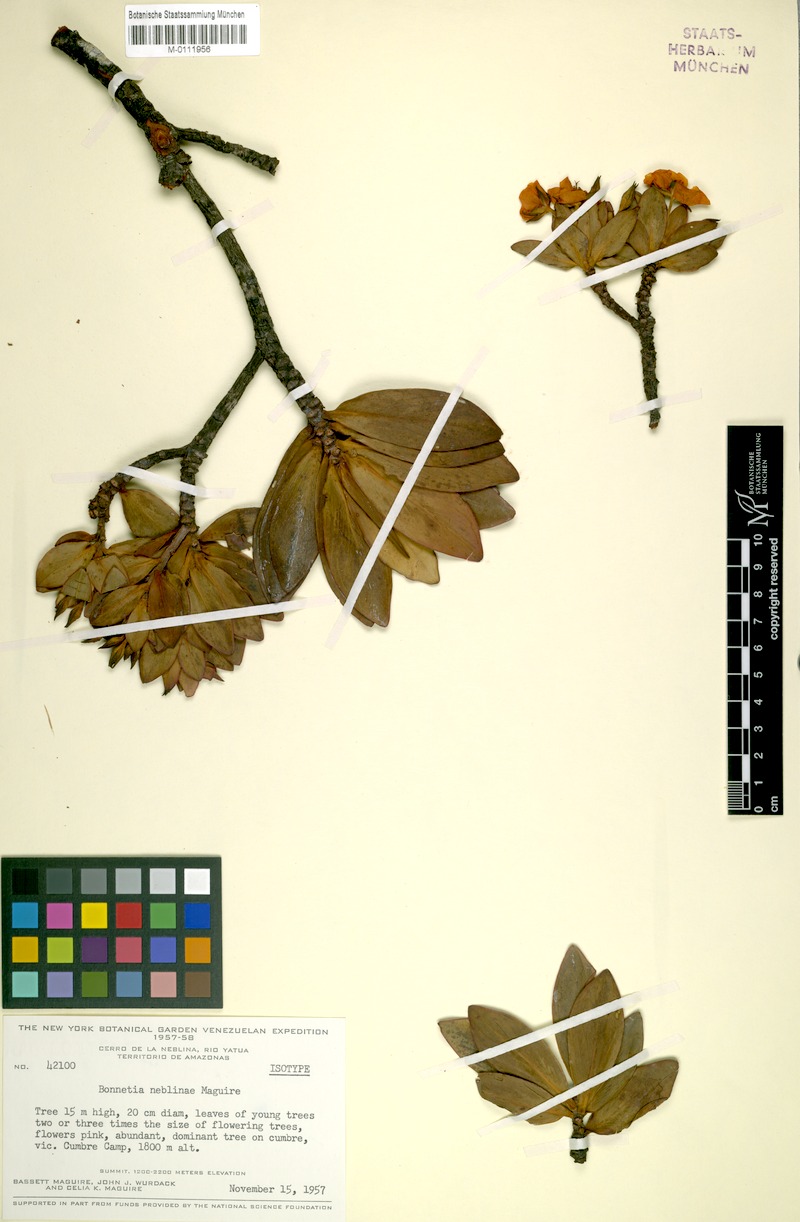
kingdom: Plantae
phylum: Tracheophyta
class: Magnoliopsida
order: Malpighiales
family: Bonnetiaceae
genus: Bonnetia
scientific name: Bonnetia neblinae
